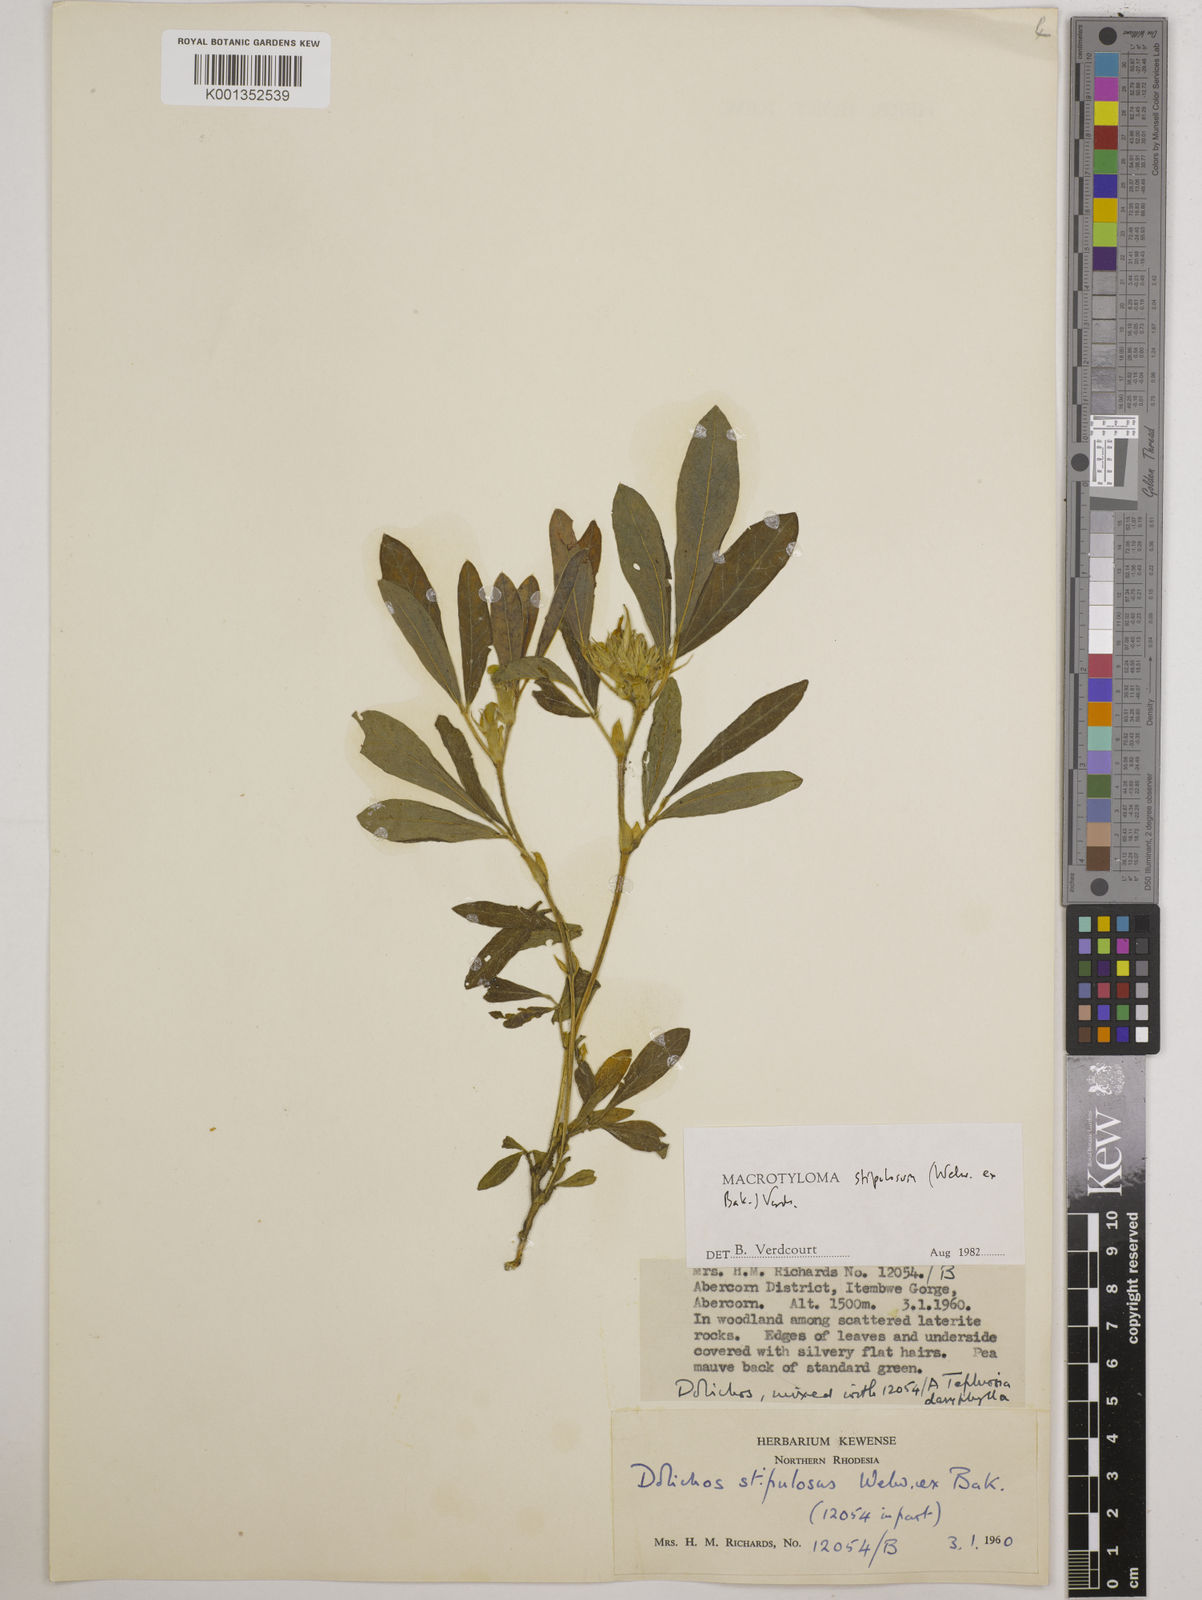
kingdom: Plantae
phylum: Tracheophyta
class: Magnoliopsida
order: Fabales
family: Fabaceae
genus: Macrotyloma
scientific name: Macrotyloma stipulosum
